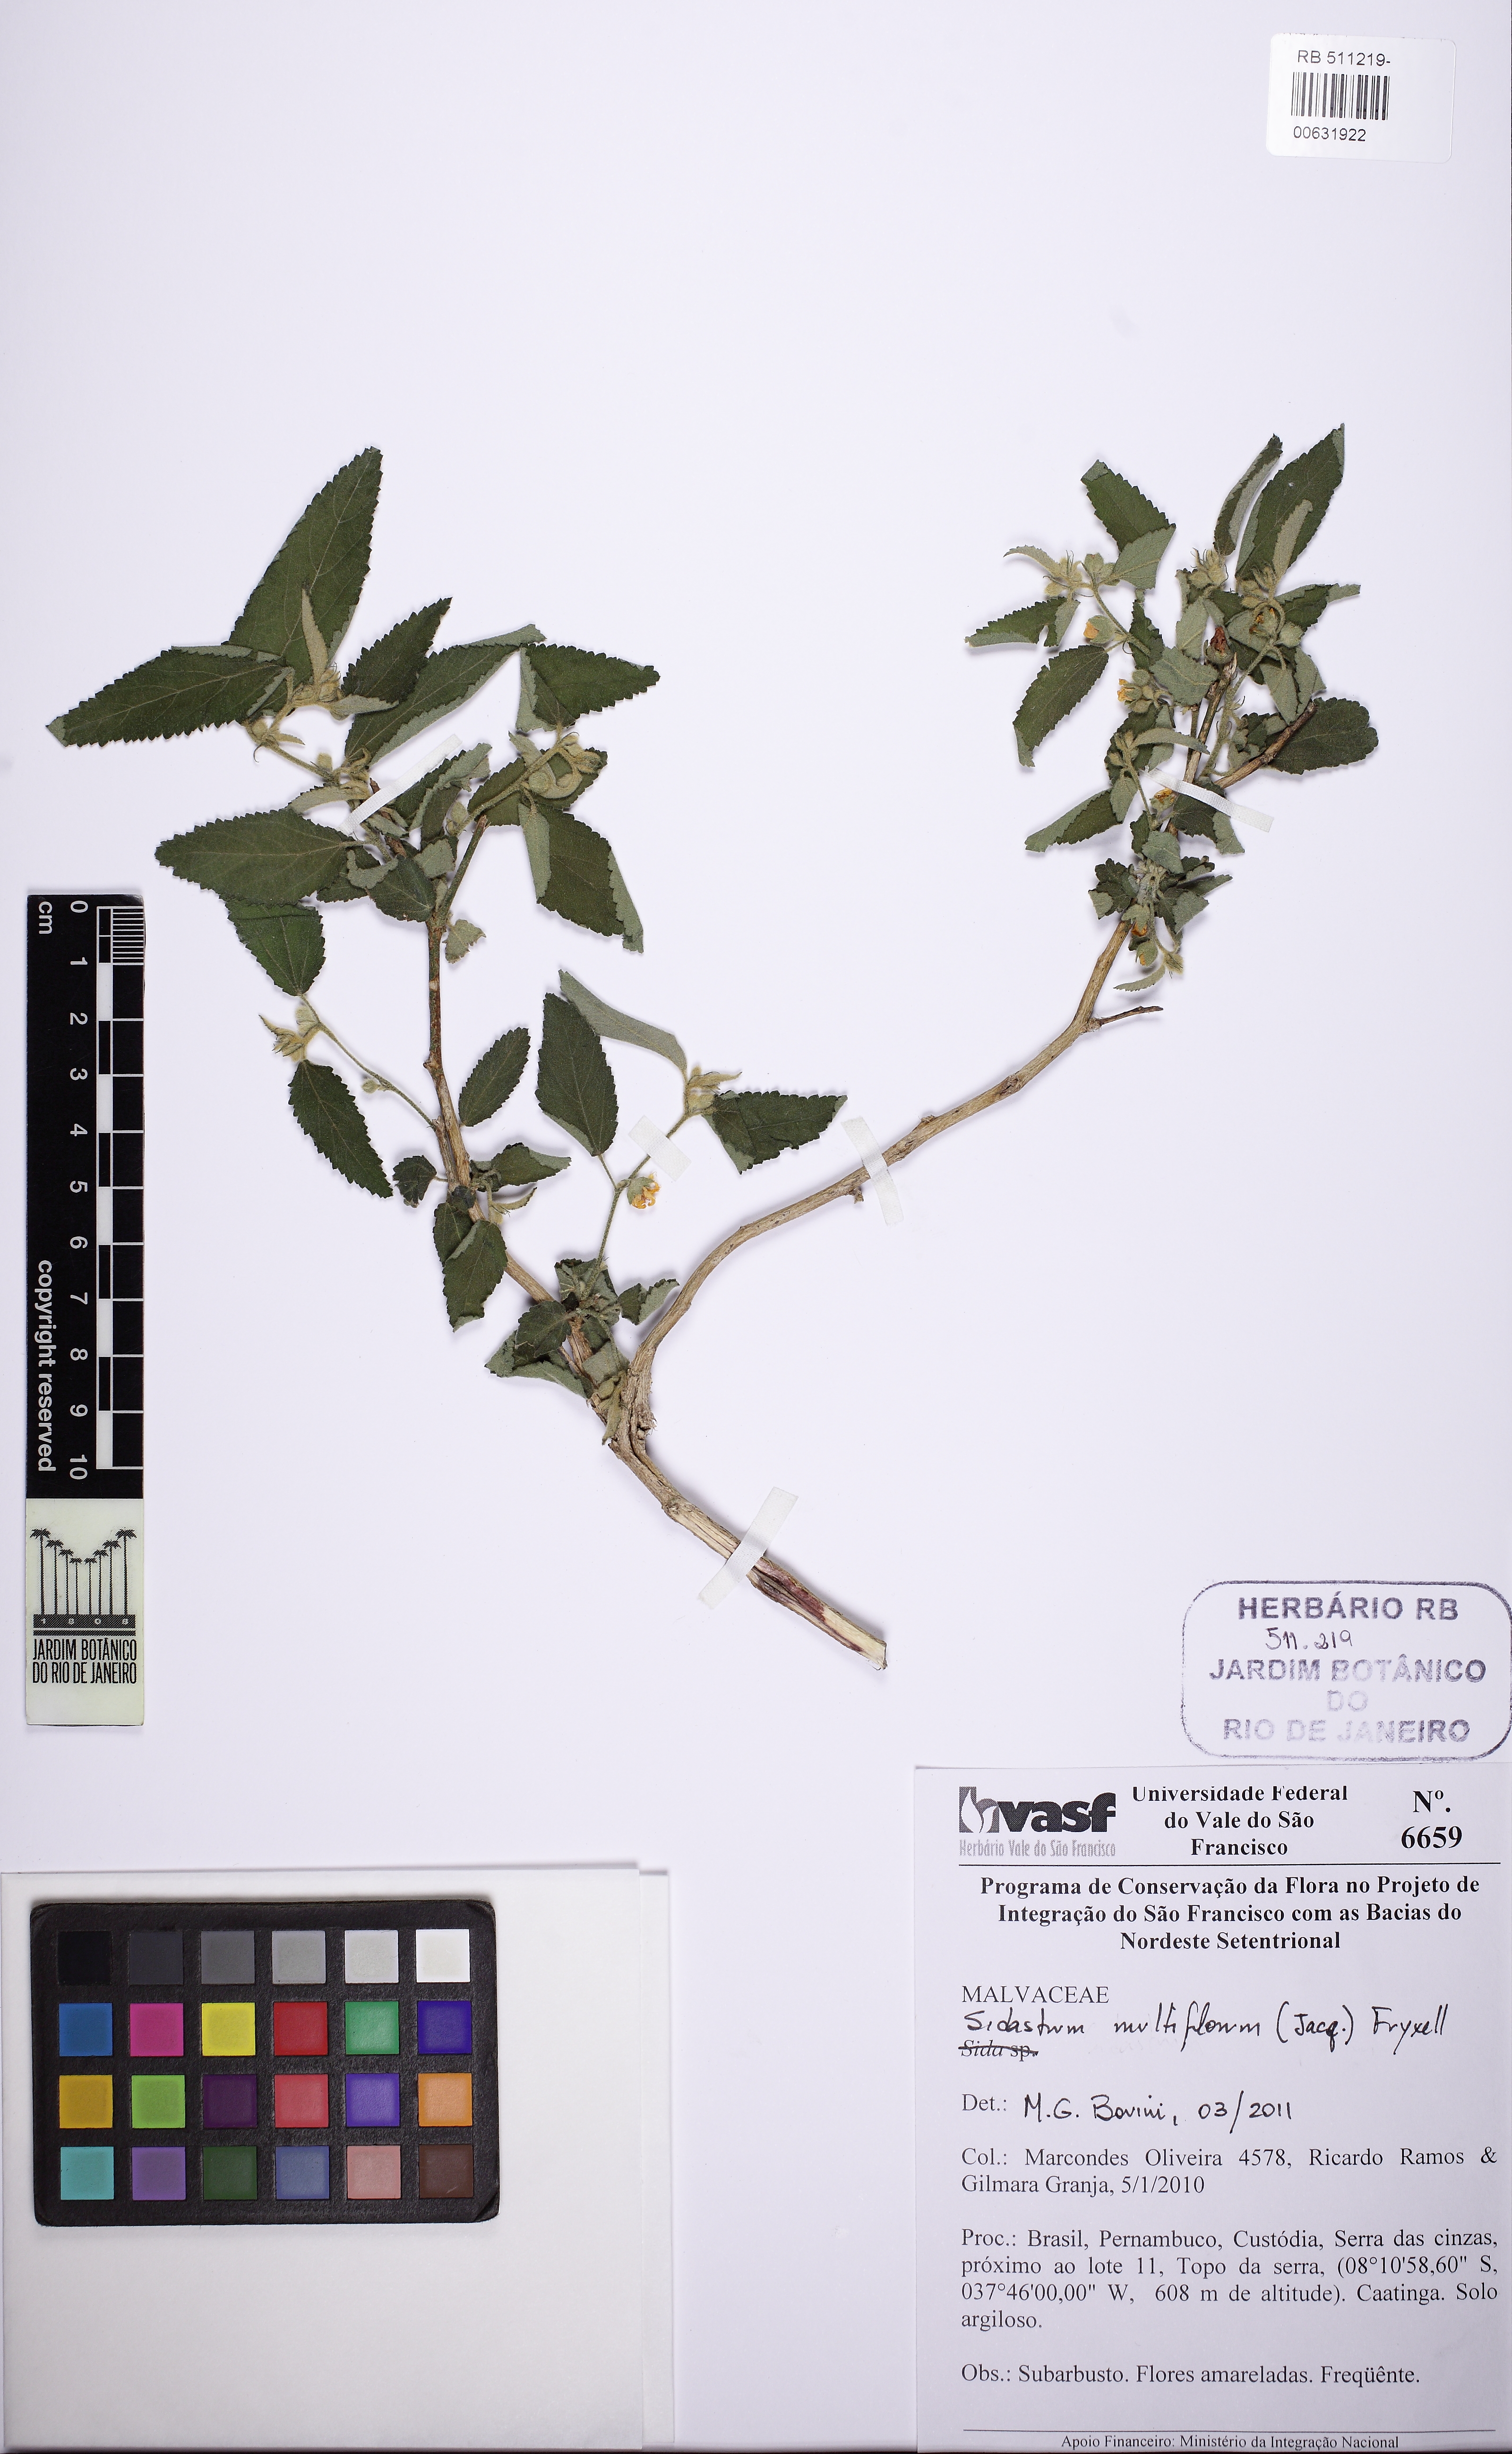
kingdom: Plantae
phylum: Tracheophyta
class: Magnoliopsida
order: Malvales
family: Malvaceae
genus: Sidastrum
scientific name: Sidastrum multiflorum
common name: Manyflower sandmallow
